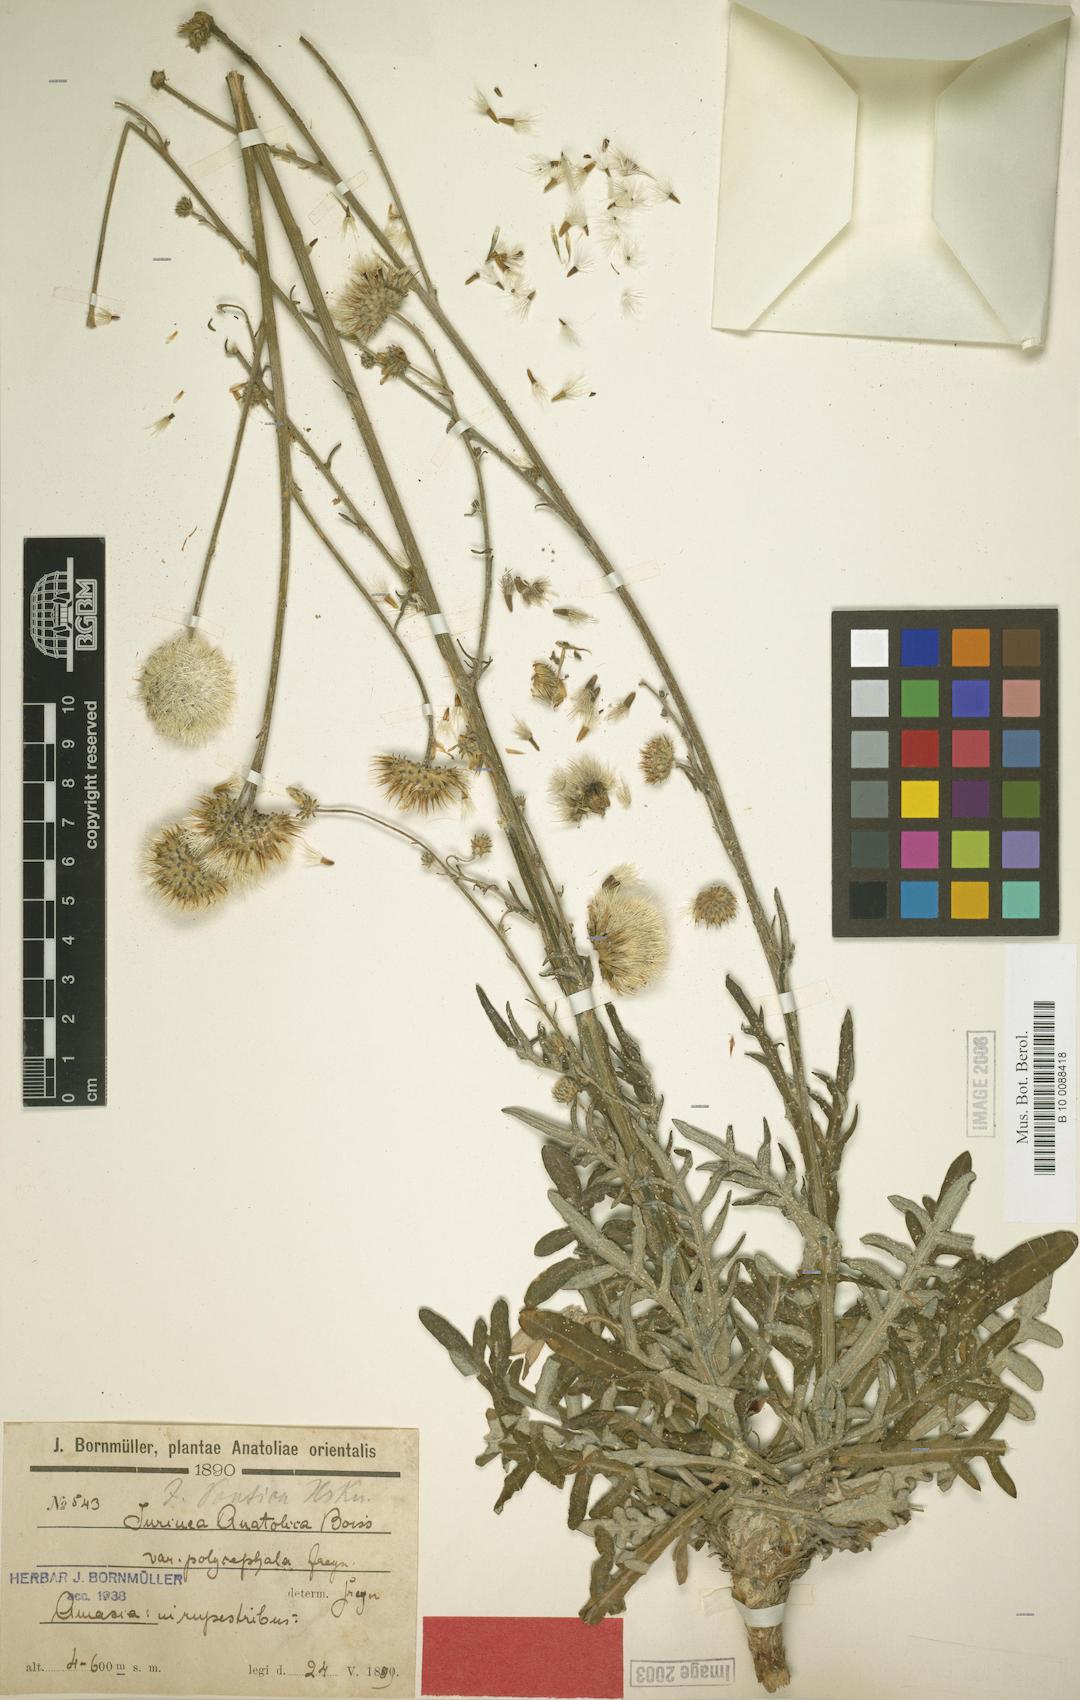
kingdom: Plantae
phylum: Tracheophyta
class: Magnoliopsida
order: Asterales
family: Asteraceae
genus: Jurinea
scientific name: Jurinea pontica
